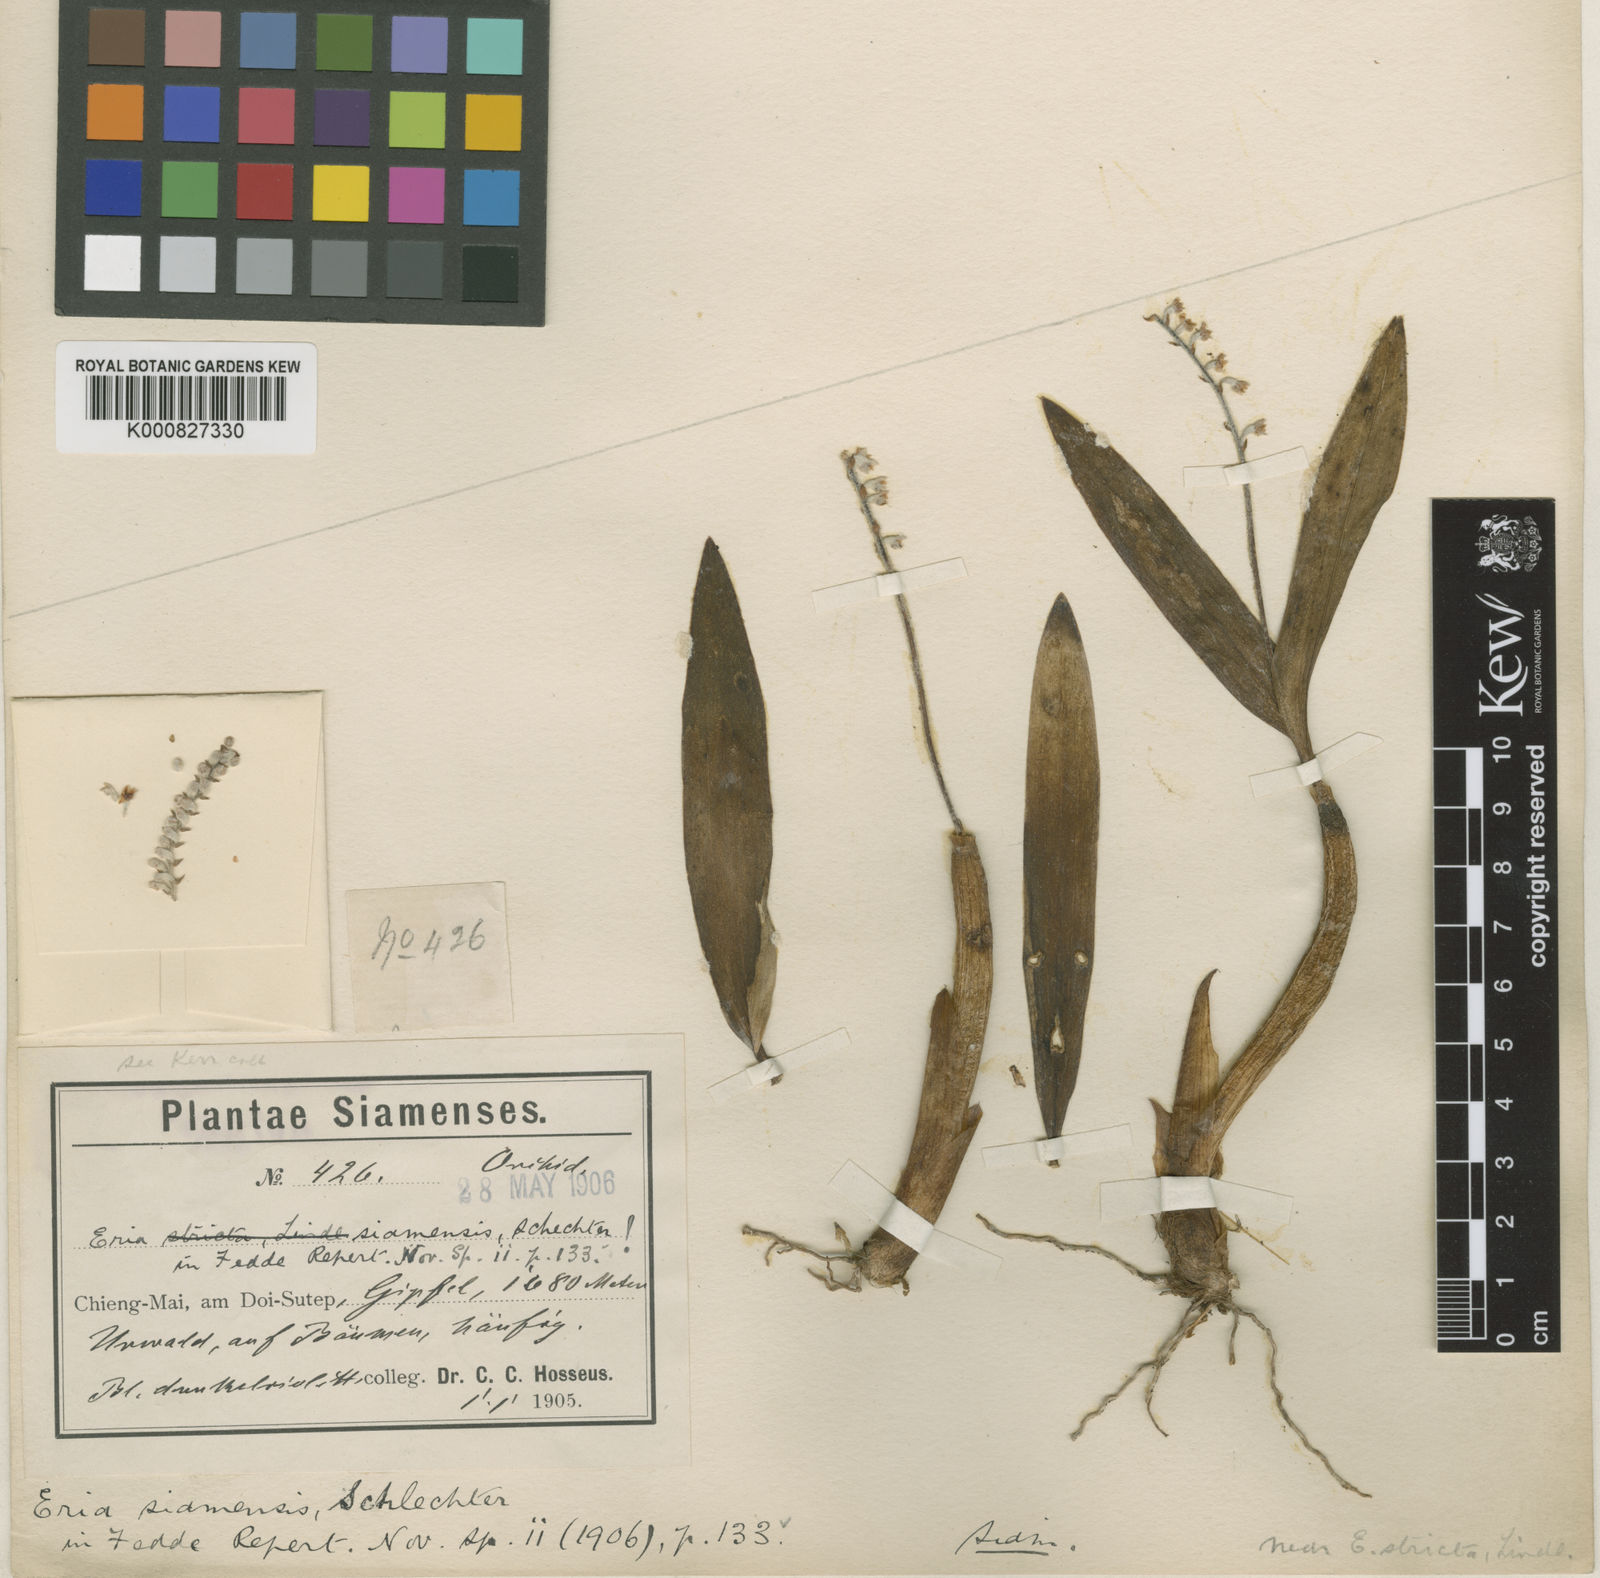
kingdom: Plantae
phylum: Tracheophyta
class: Liliopsida
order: Asparagales
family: Orchidaceae
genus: Cryptochilus
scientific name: Cryptochilus siamensis
